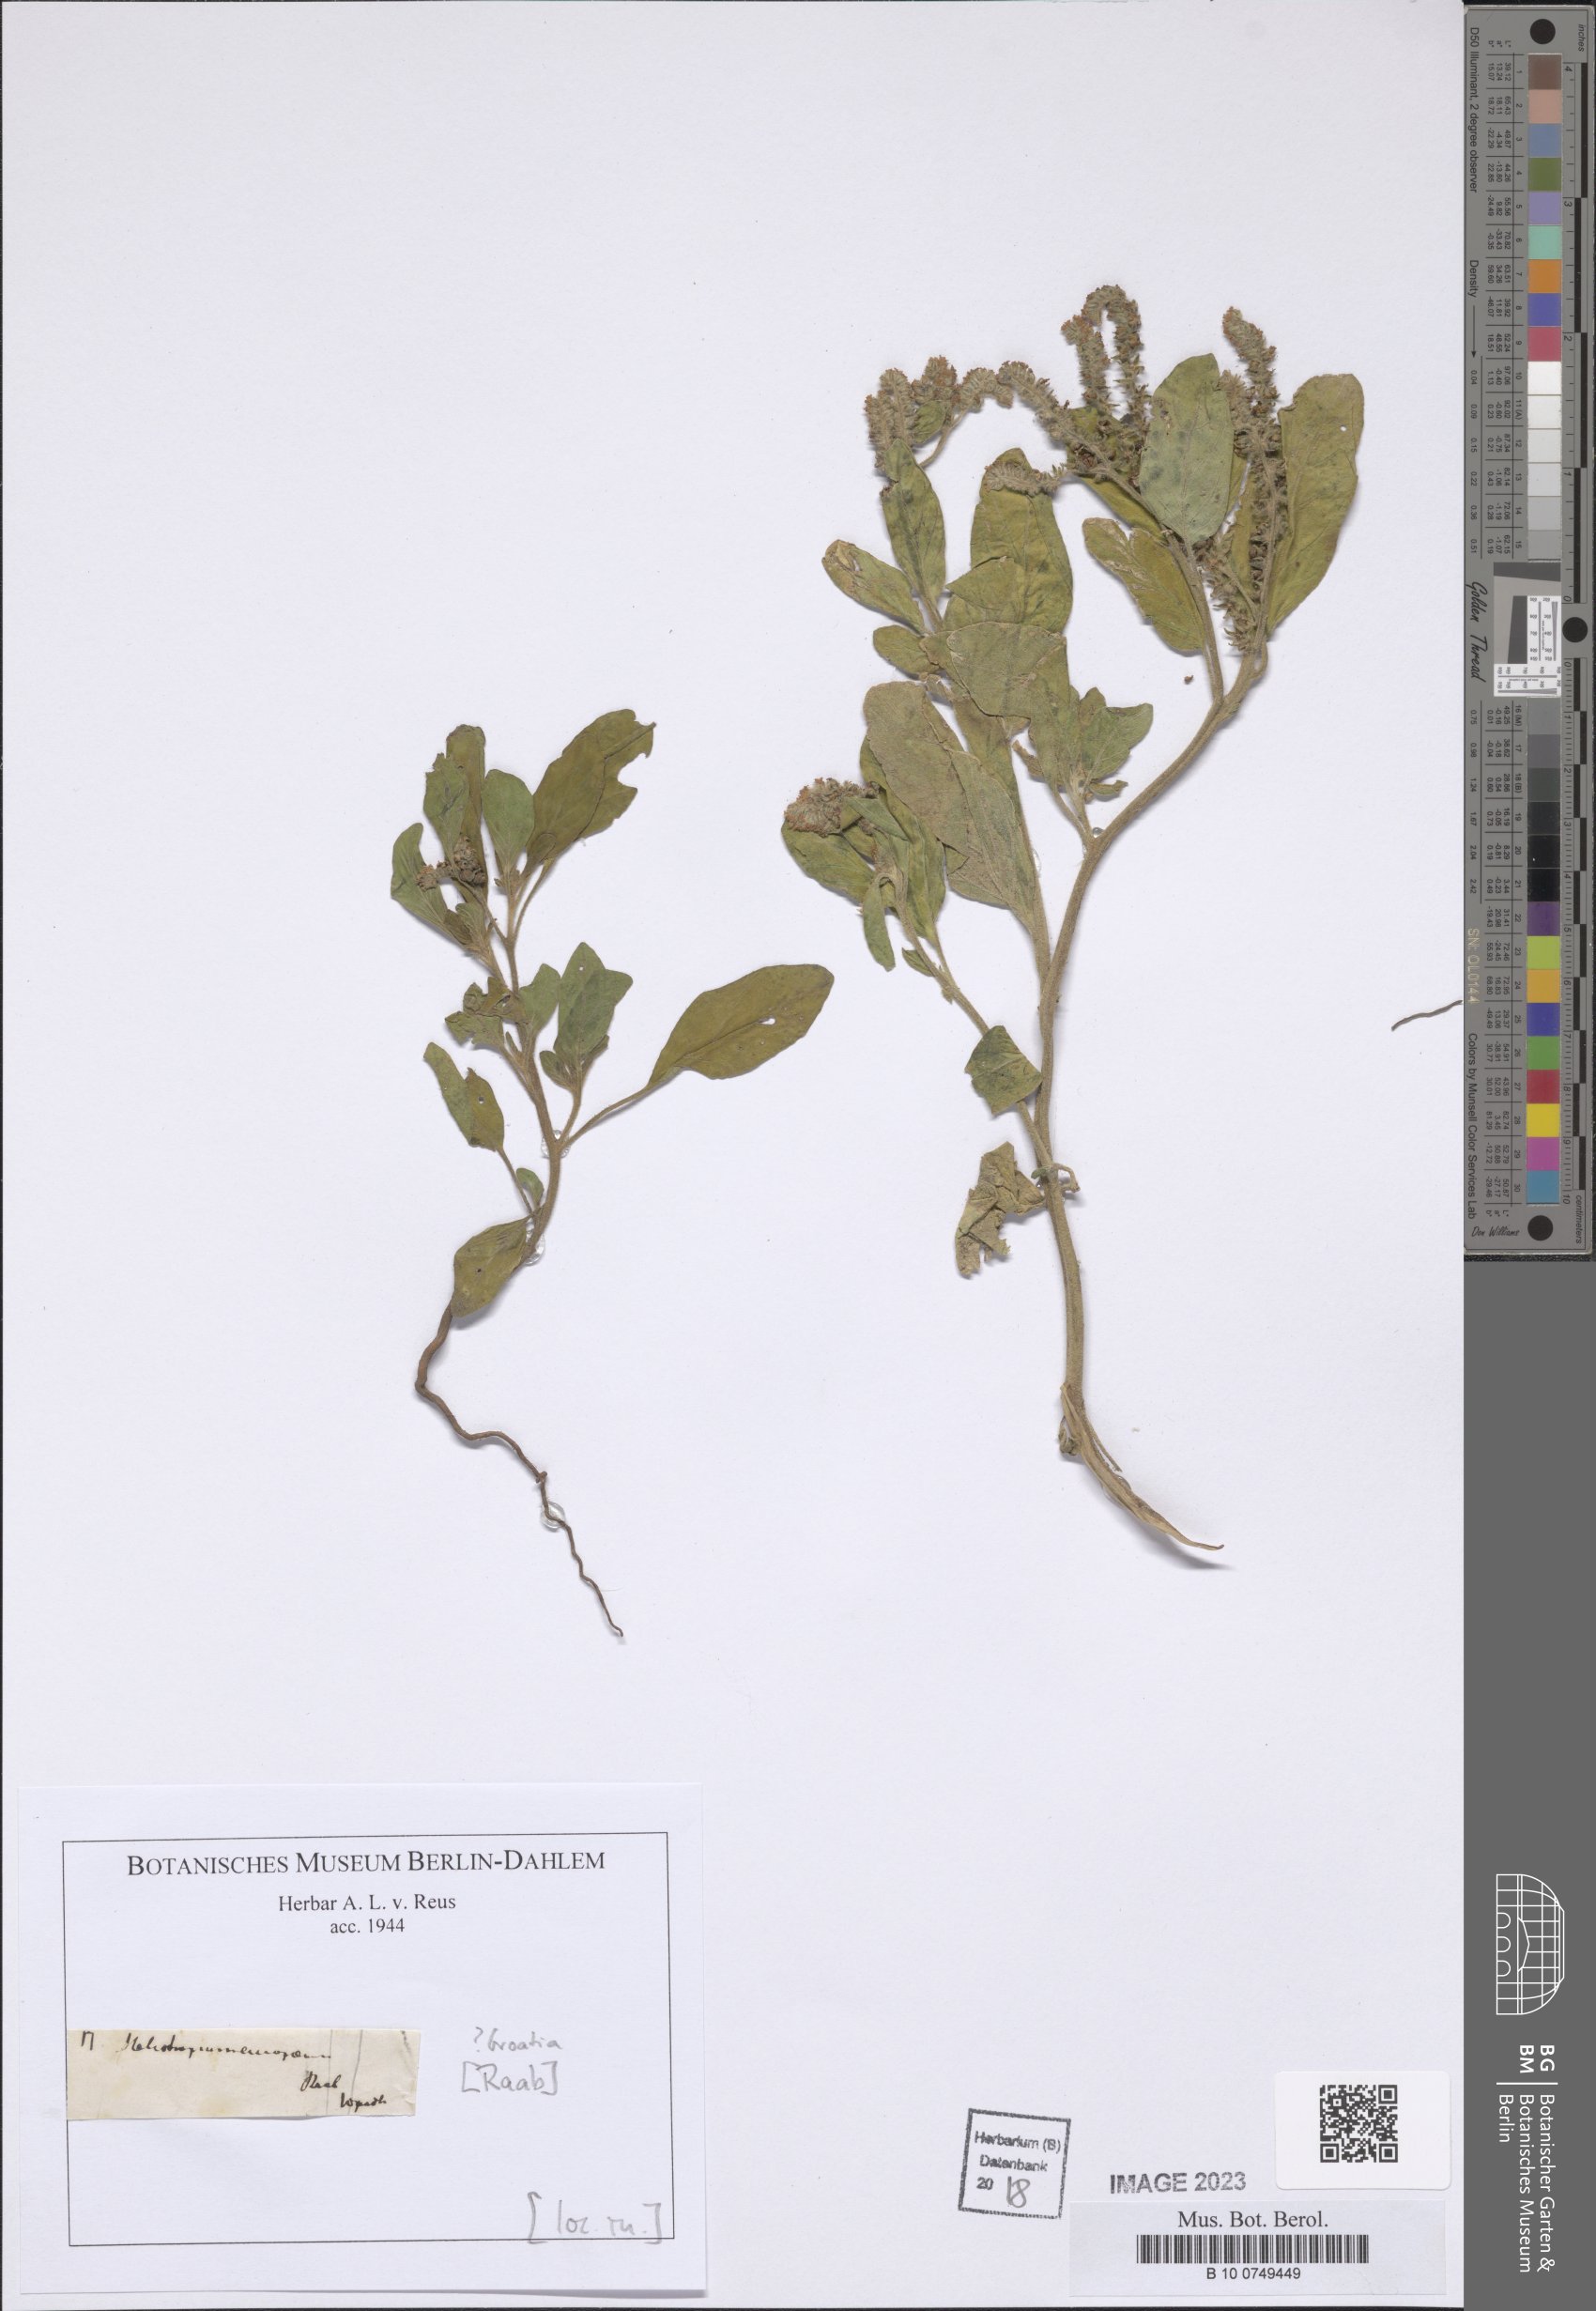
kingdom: Plantae
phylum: Tracheophyta
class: Magnoliopsida
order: Boraginales
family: Heliotropiaceae
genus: Heliotropium
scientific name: Heliotropium europaeum
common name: European heliotrope
